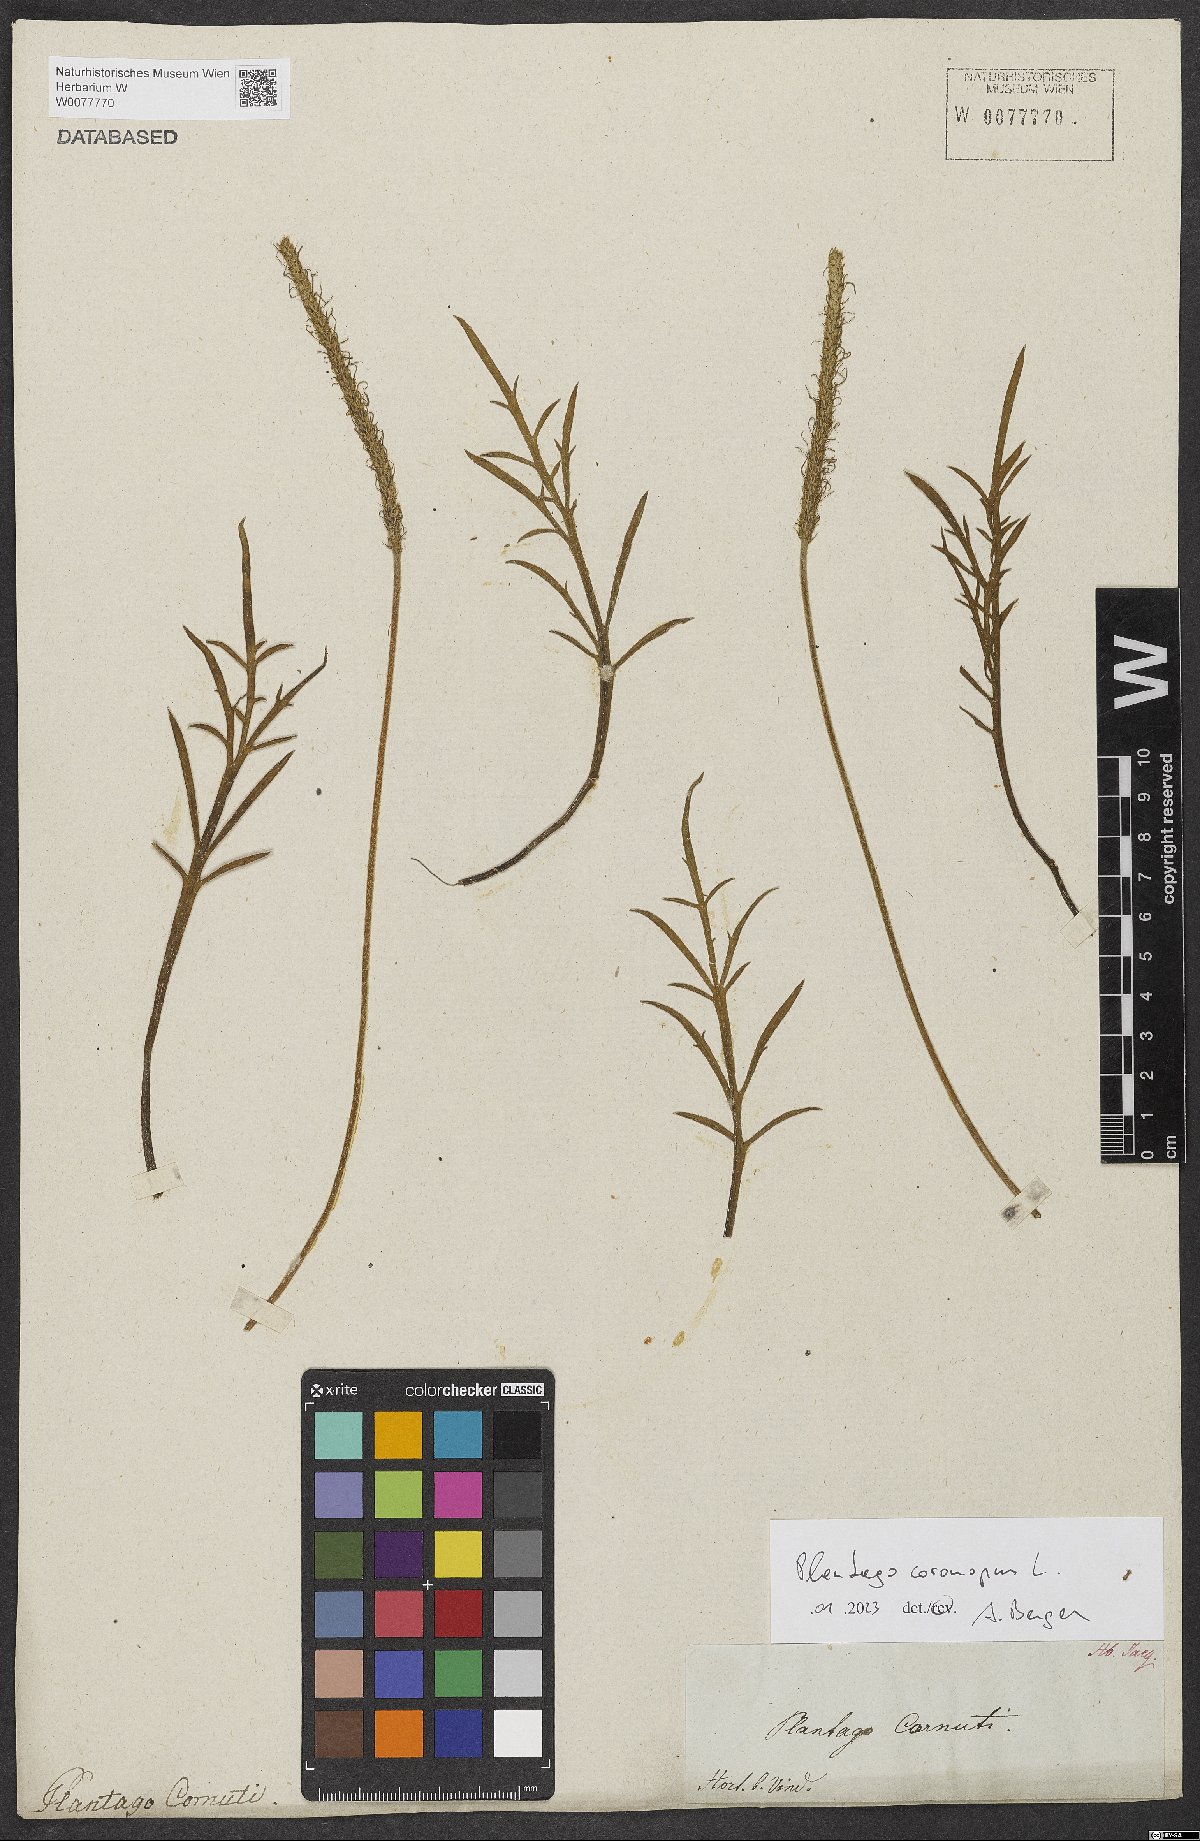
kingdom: Plantae
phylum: Tracheophyta
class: Magnoliopsida
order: Lamiales
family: Plantaginaceae
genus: Plantago
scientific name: Plantago coronopus
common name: Buck's-horn plantain
